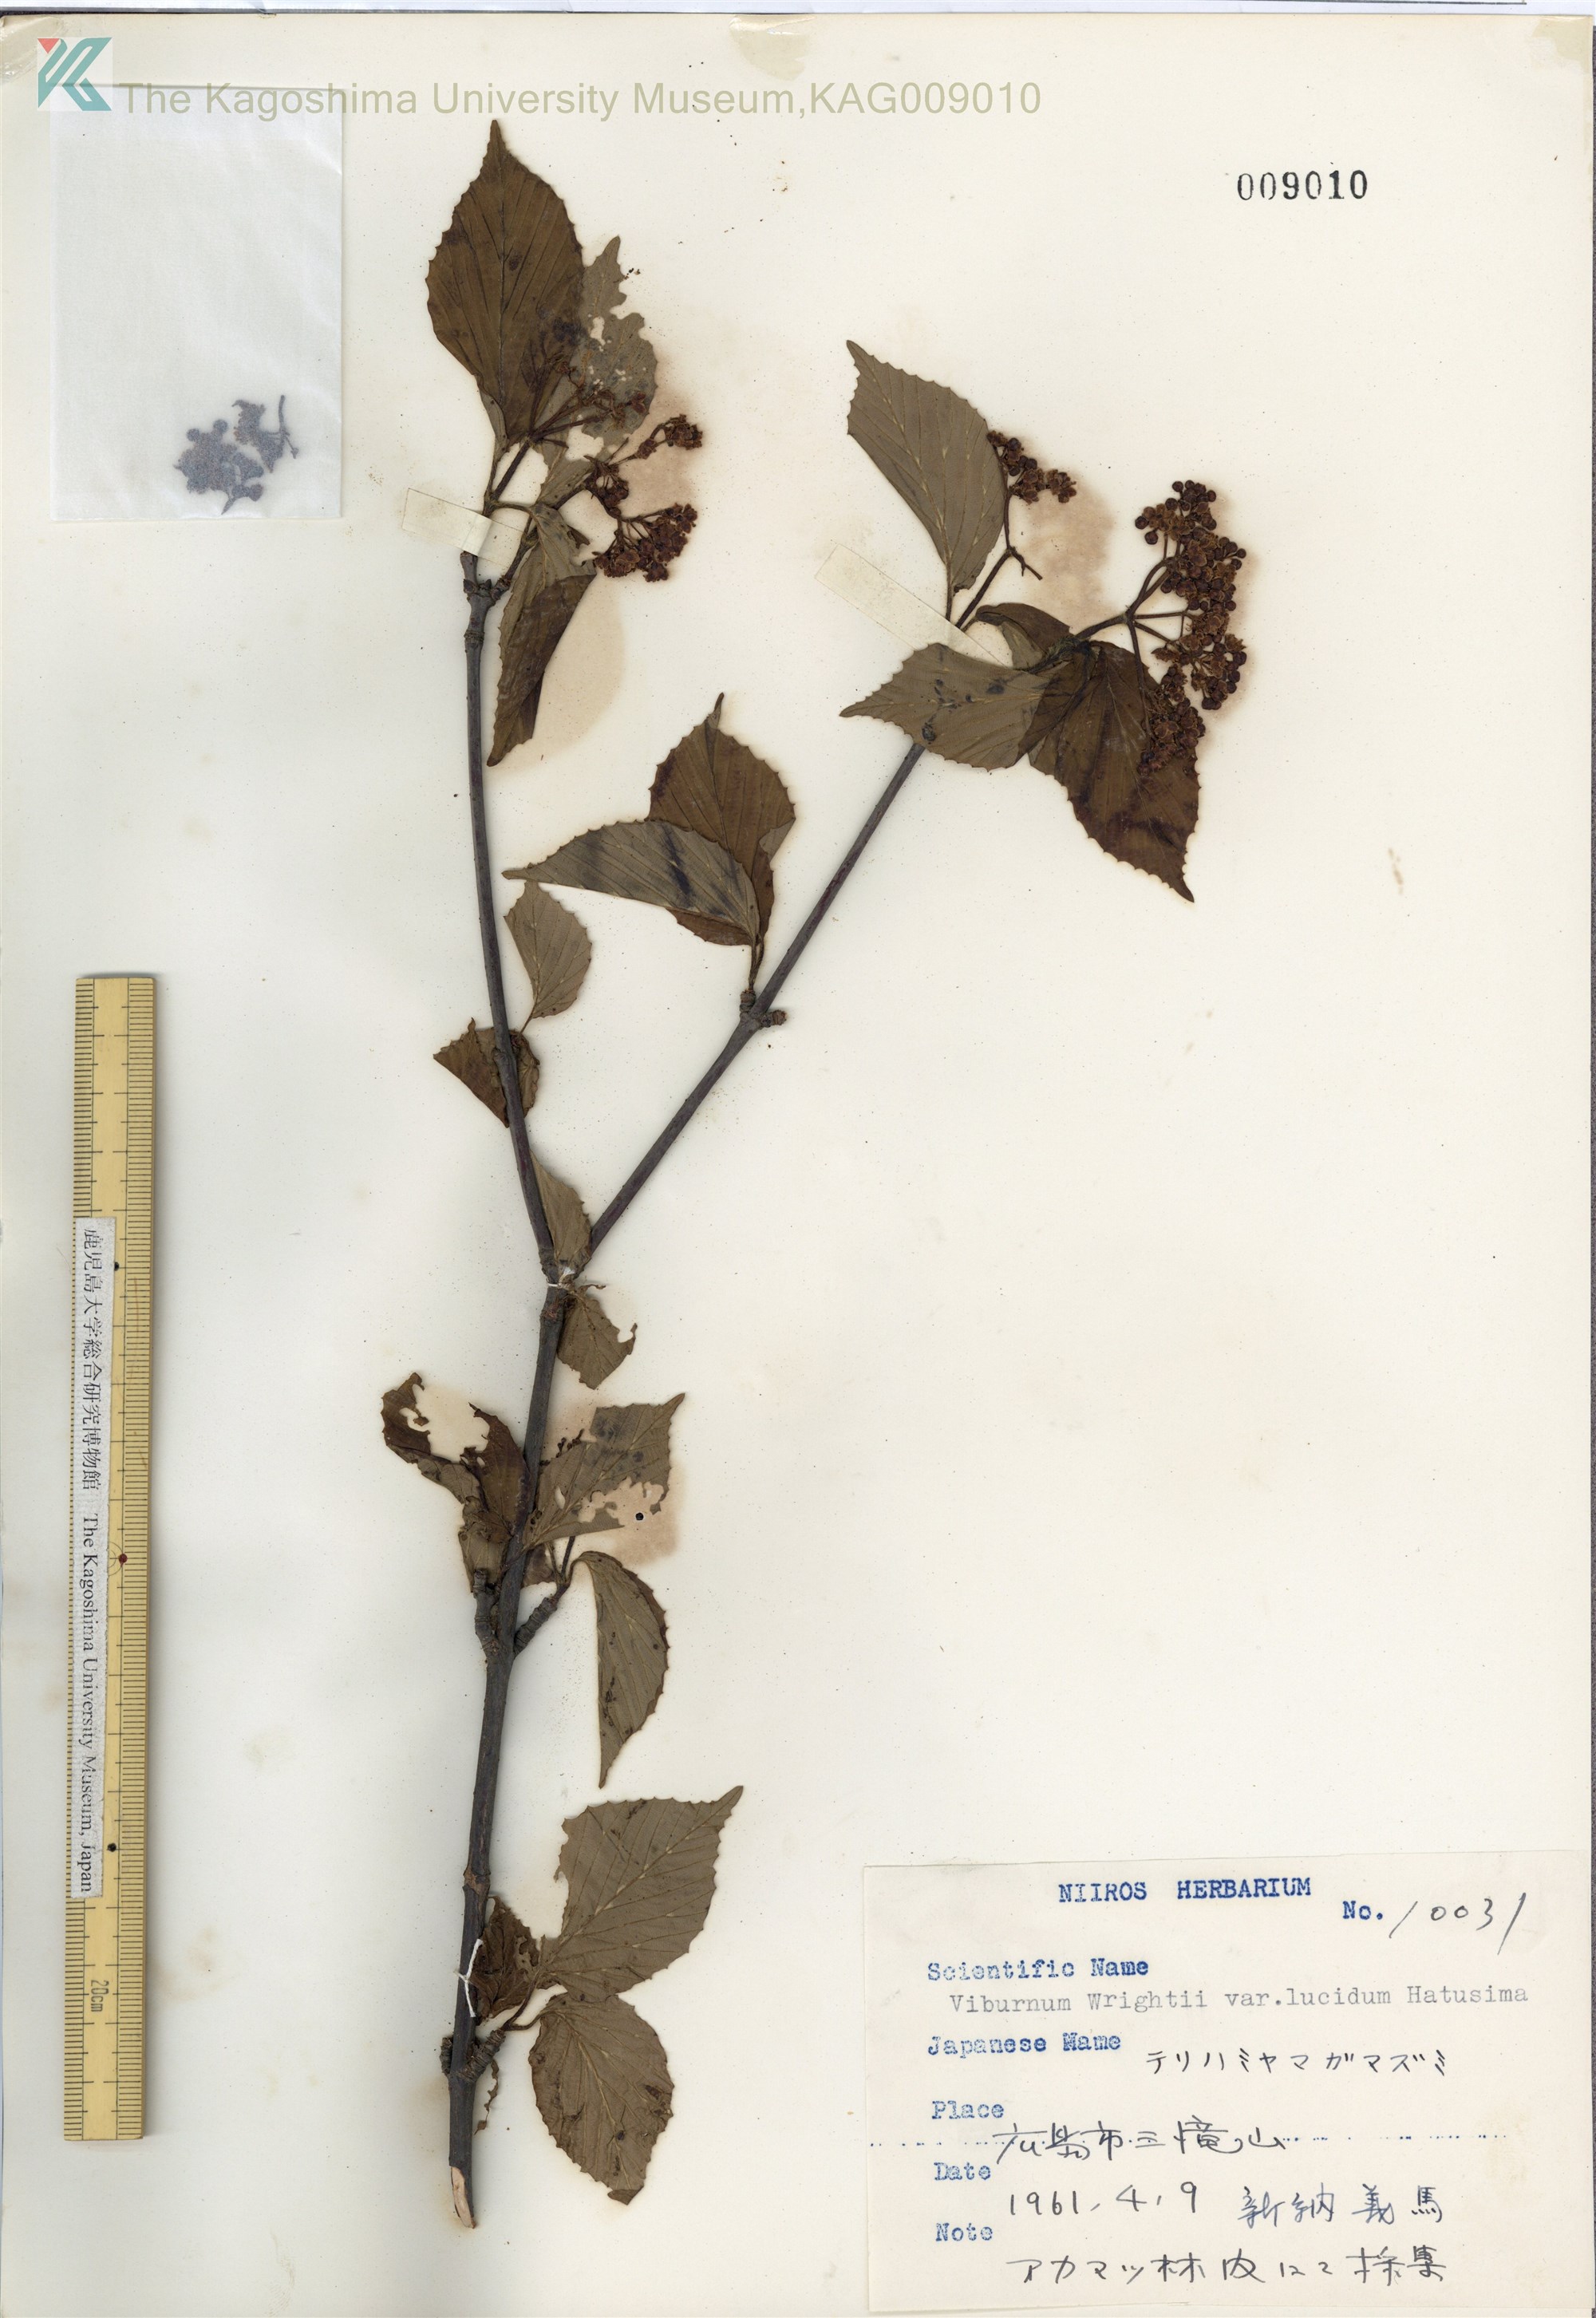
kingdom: Plantae
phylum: Tracheophyta
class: Magnoliopsida
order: Dipsacales
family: Viburnaceae
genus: Viburnum
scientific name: Viburnum wrightii
